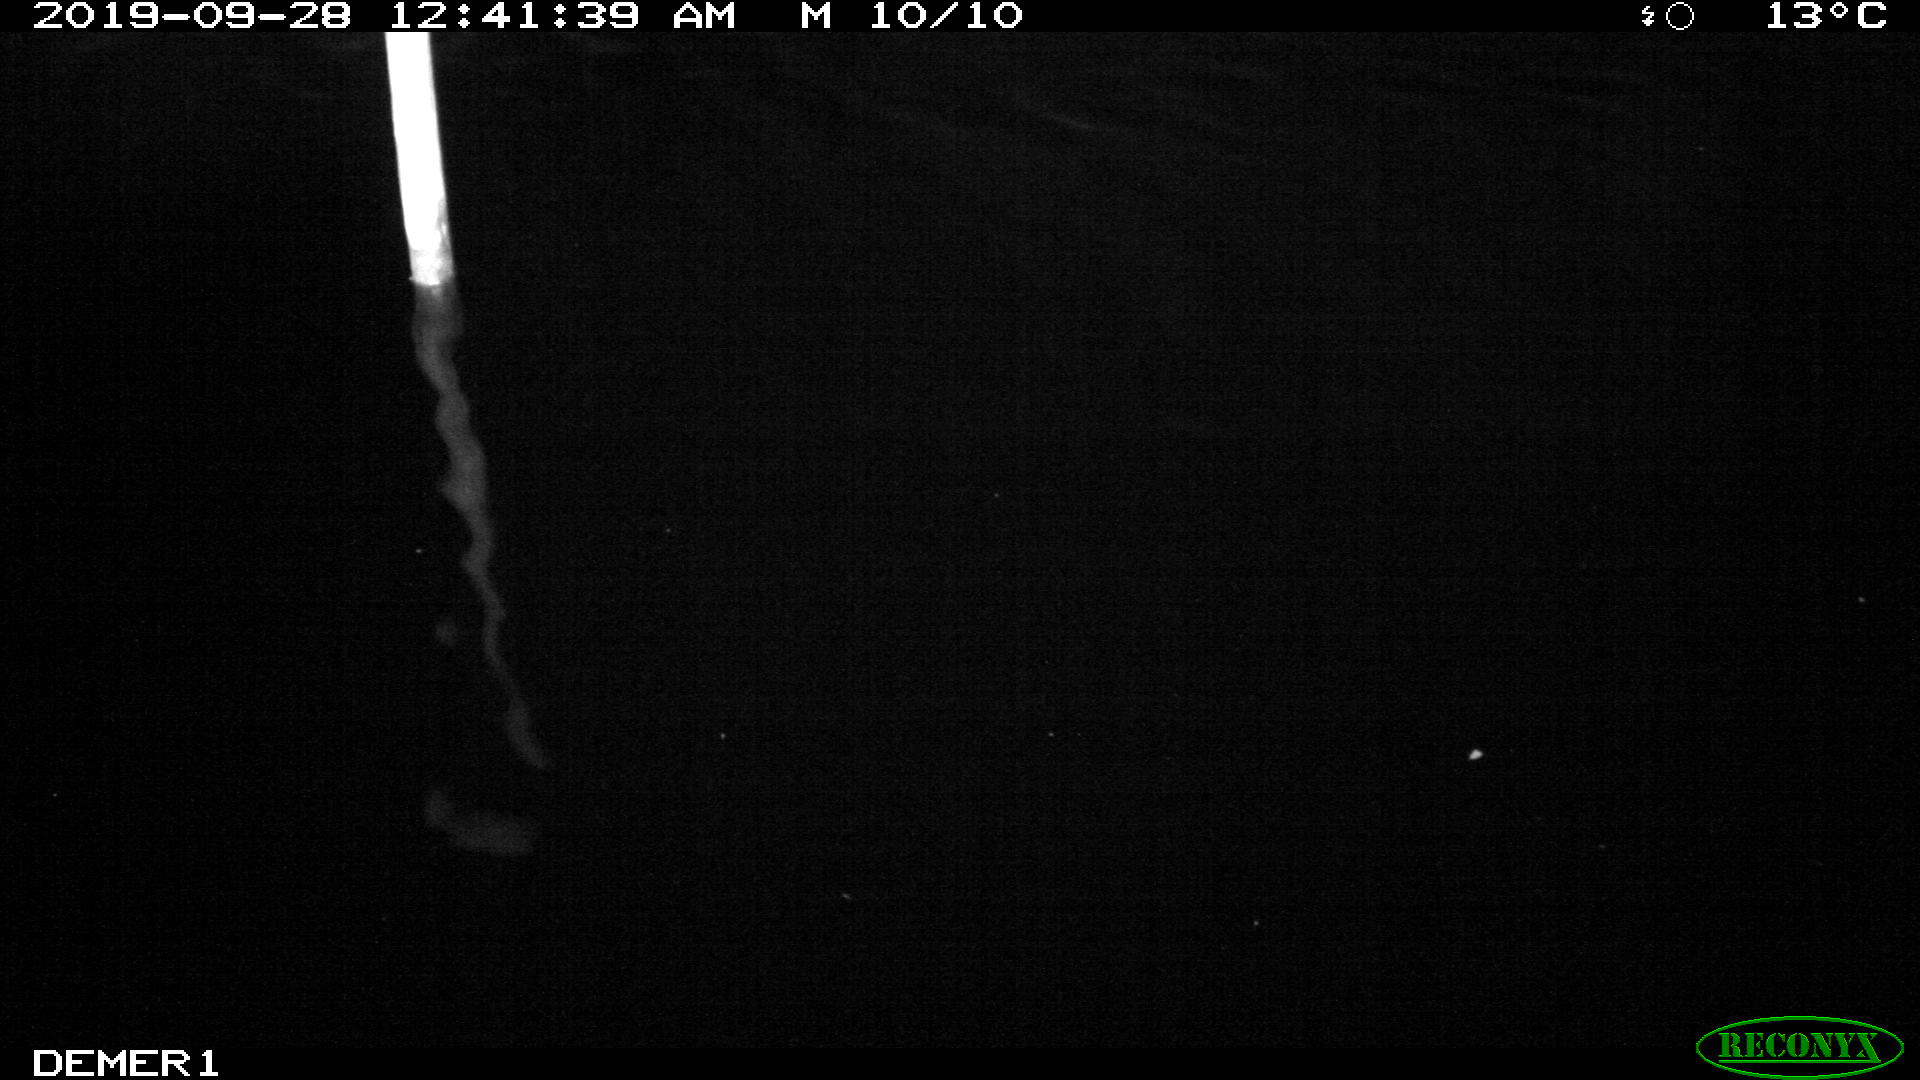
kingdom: Animalia
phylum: Chordata
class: Aves
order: Anseriformes
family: Anatidae
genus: Anas
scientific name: Anas platyrhynchos
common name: Mallard
